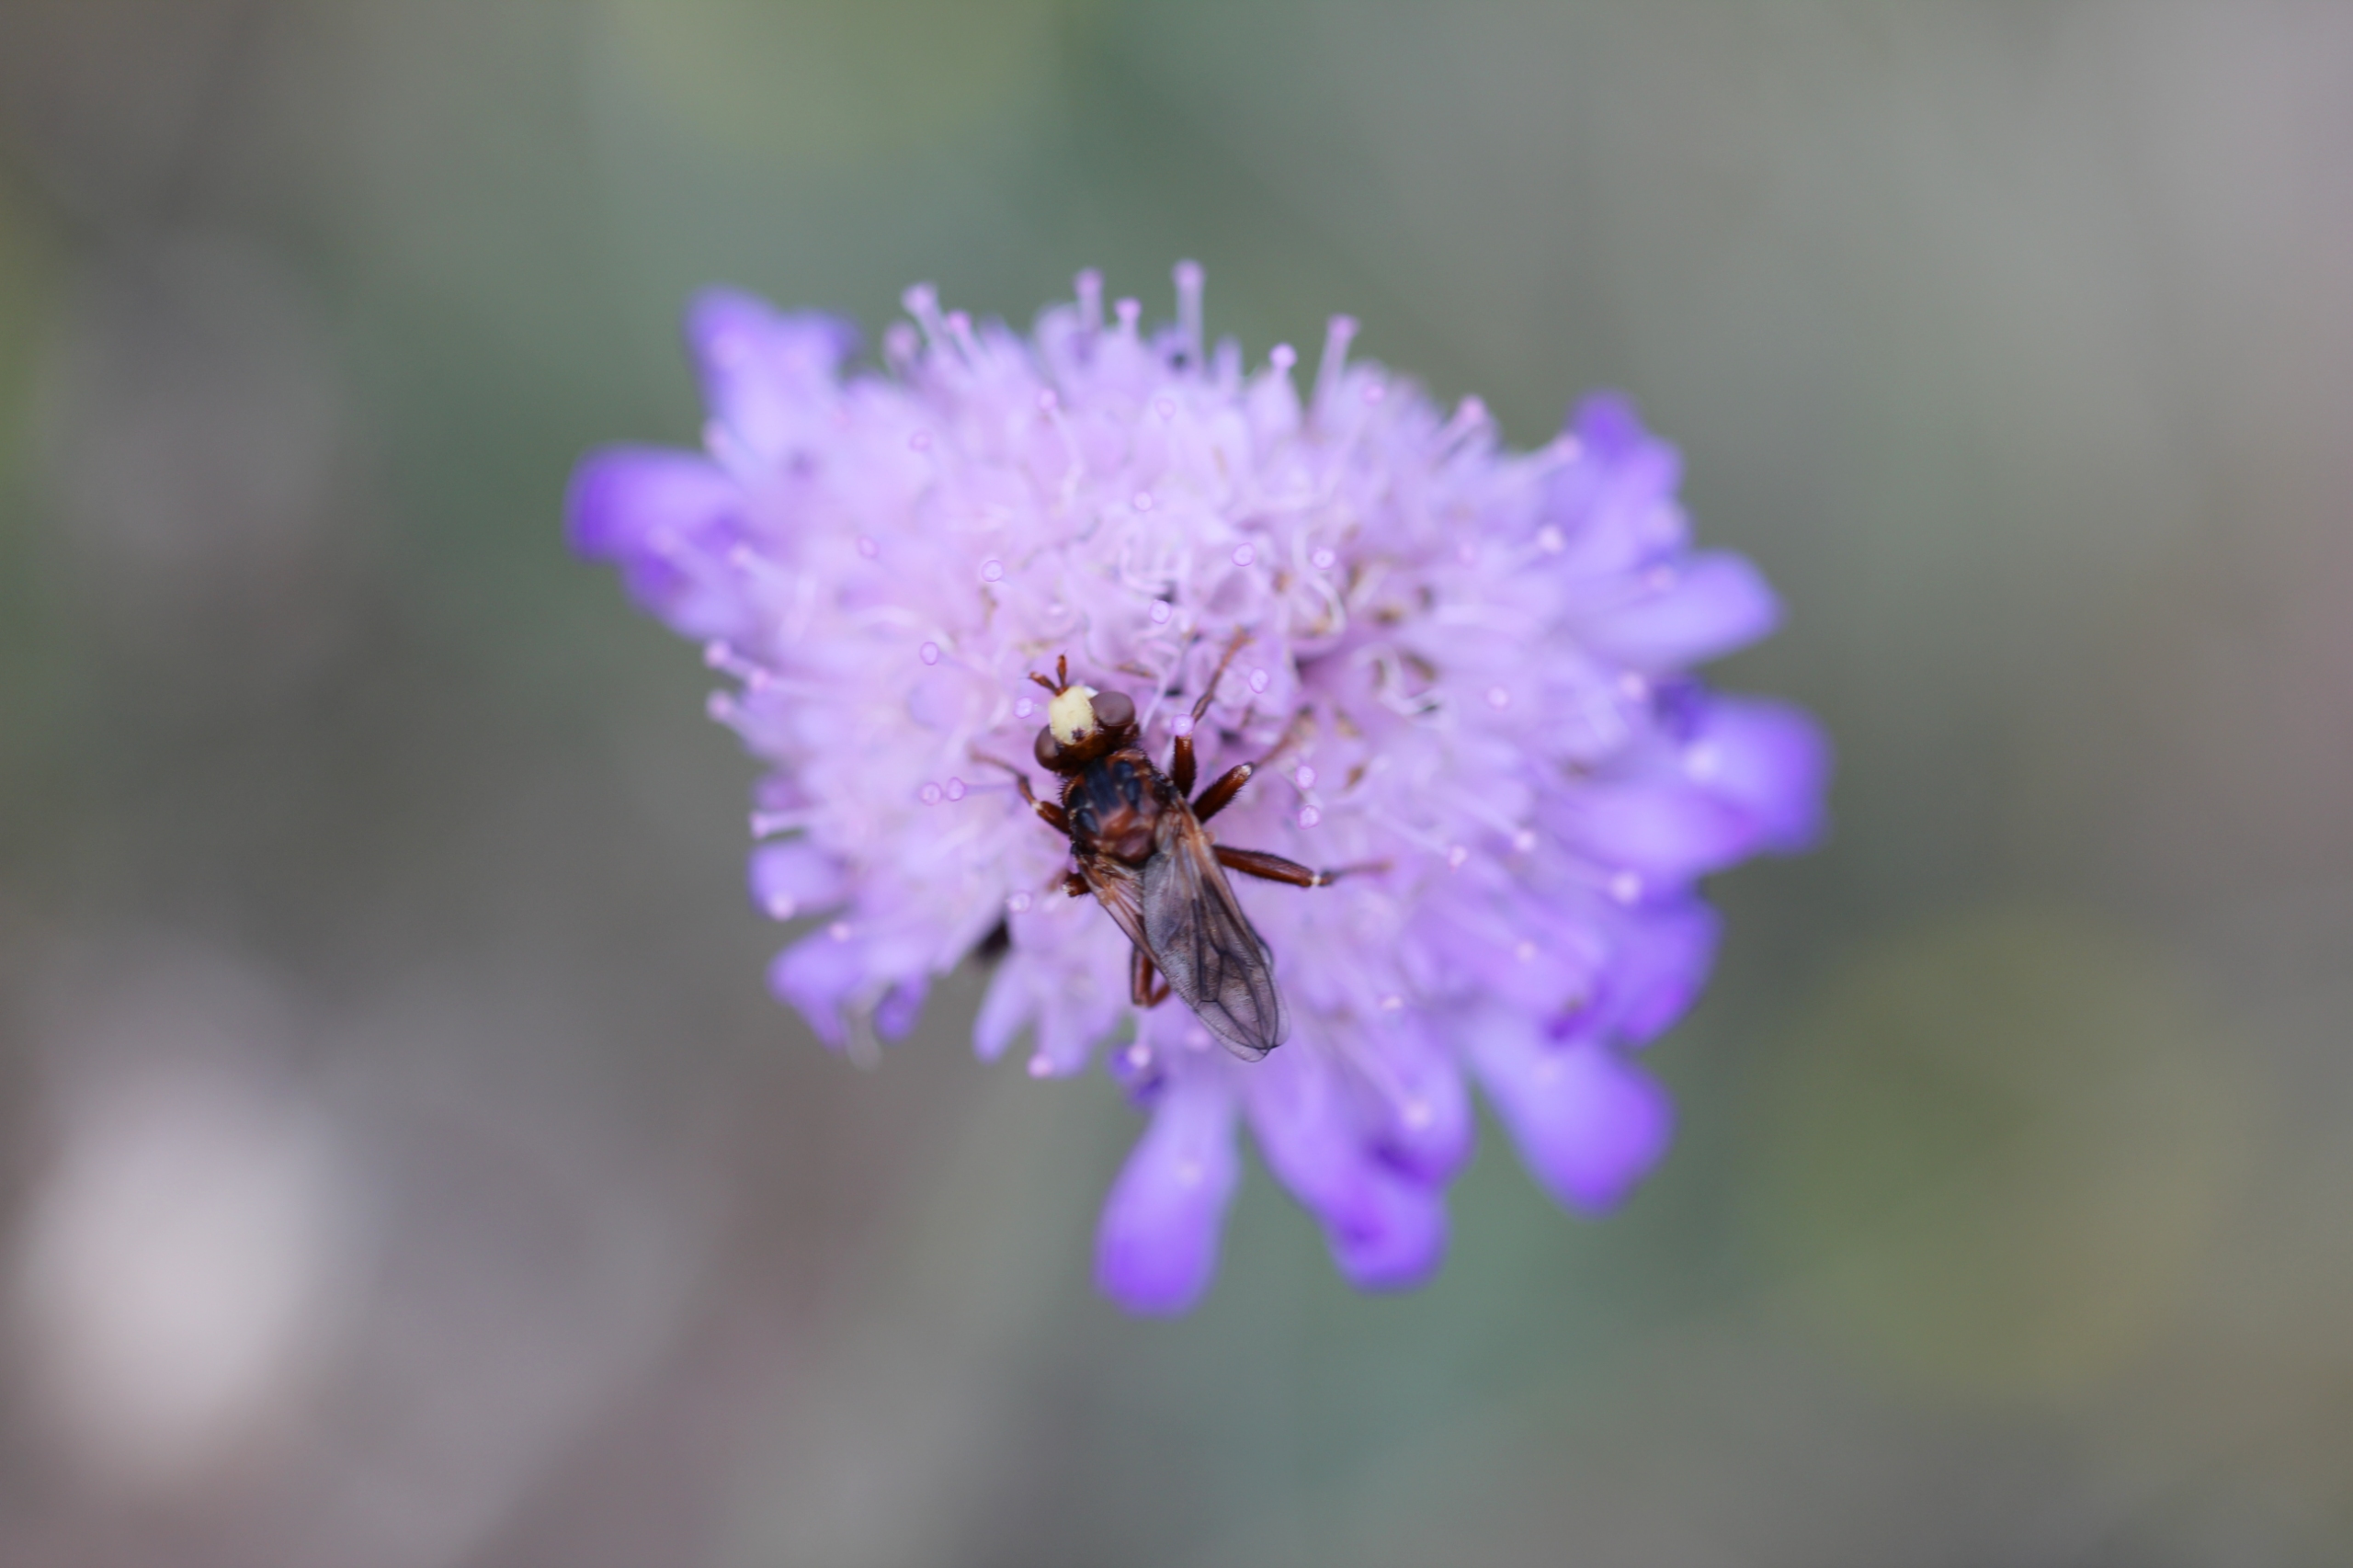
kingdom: Animalia
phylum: Arthropoda
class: Insecta
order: Diptera
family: Conopidae
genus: Sicus
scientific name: Sicus ferrugineus
